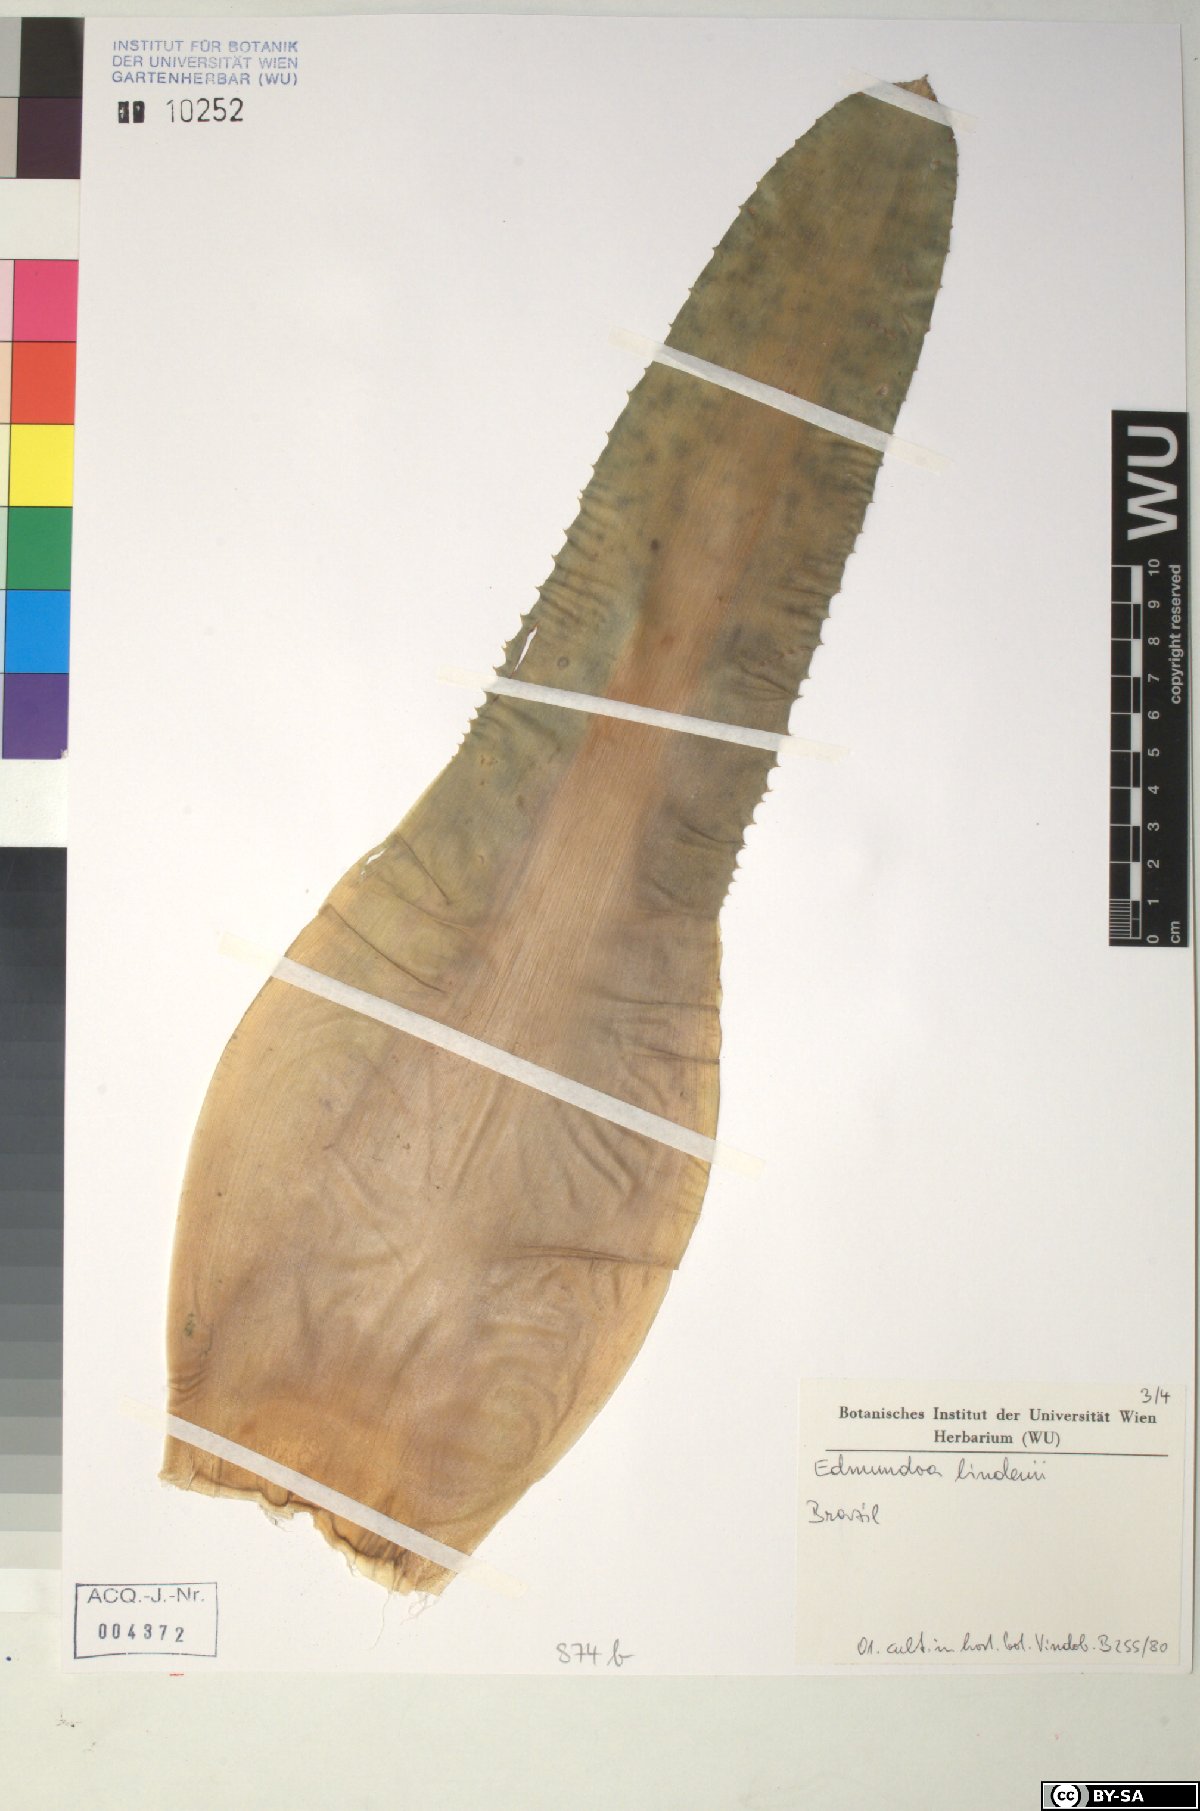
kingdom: Plantae
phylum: Tracheophyta
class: Liliopsida
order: Poales
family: Bromeliaceae
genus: Edmundoa
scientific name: Edmundoa
